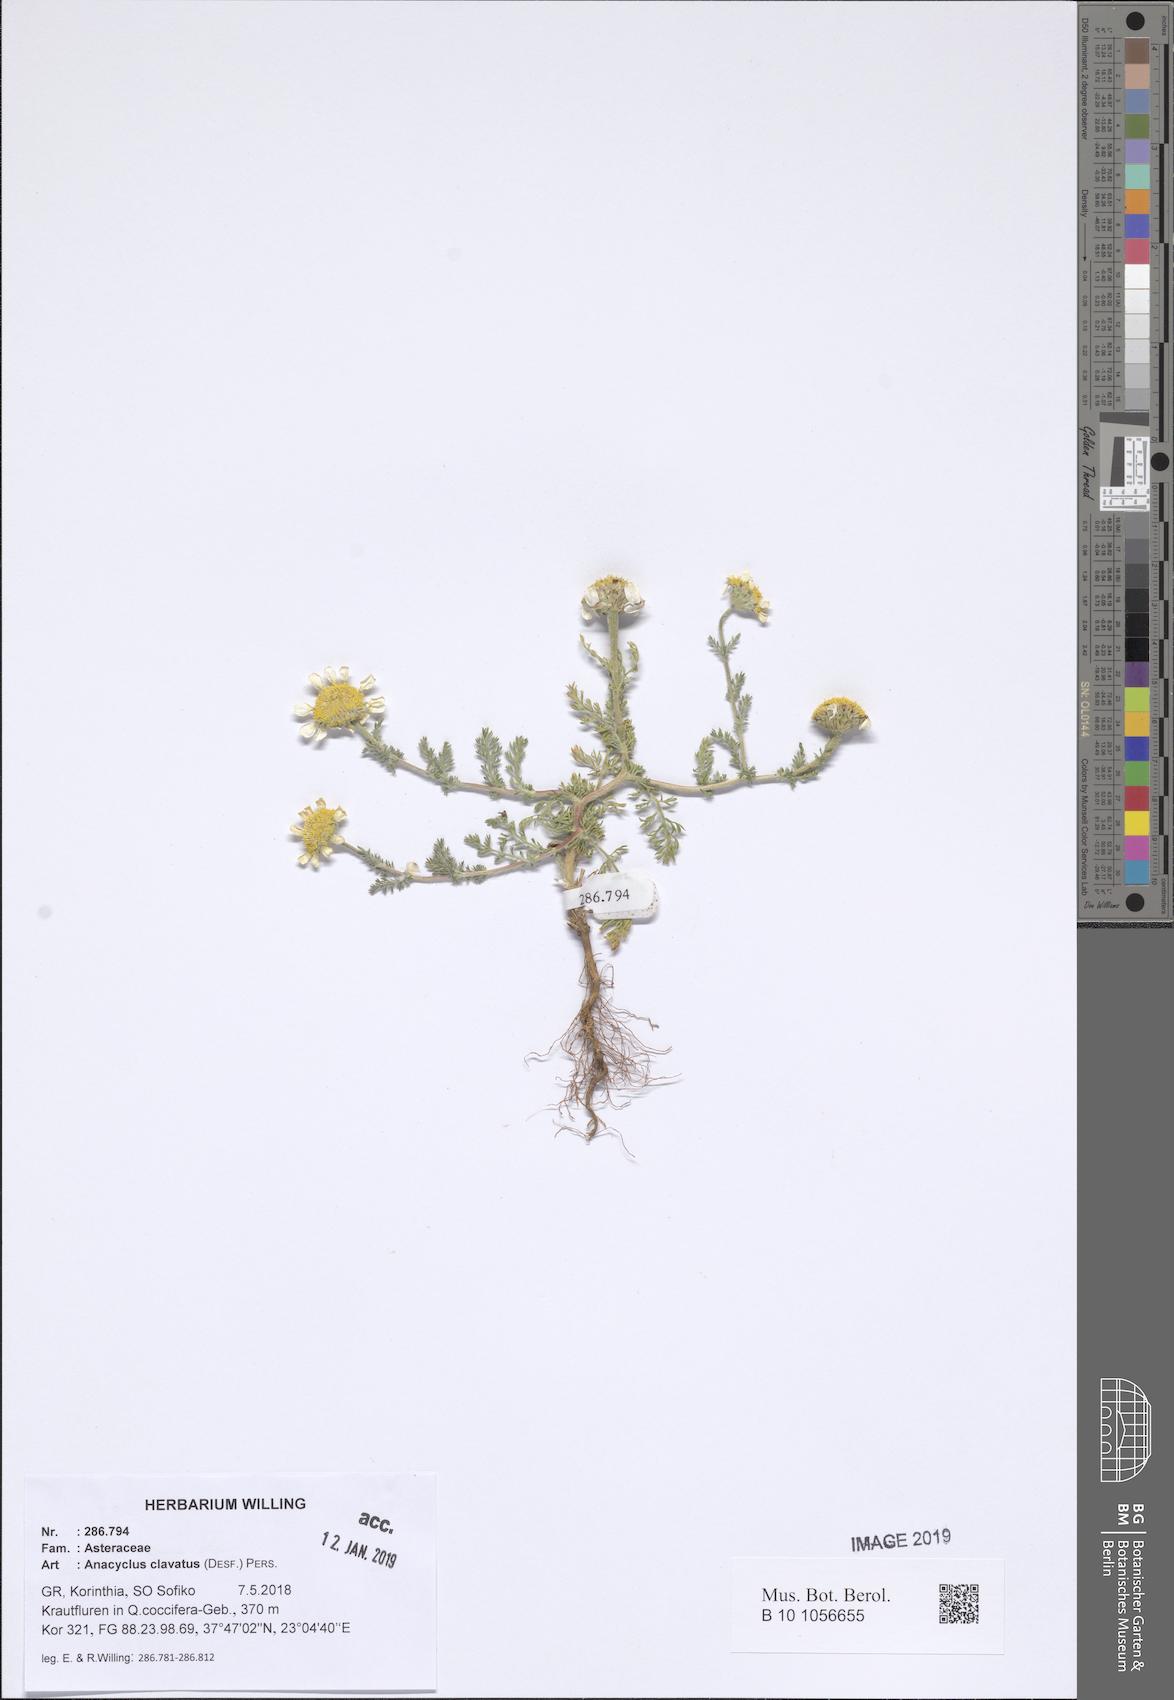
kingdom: Plantae
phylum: Tracheophyta
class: Magnoliopsida
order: Asterales
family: Asteraceae
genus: Anacyclus
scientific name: Anacyclus clavatus
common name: Whitebuttons
